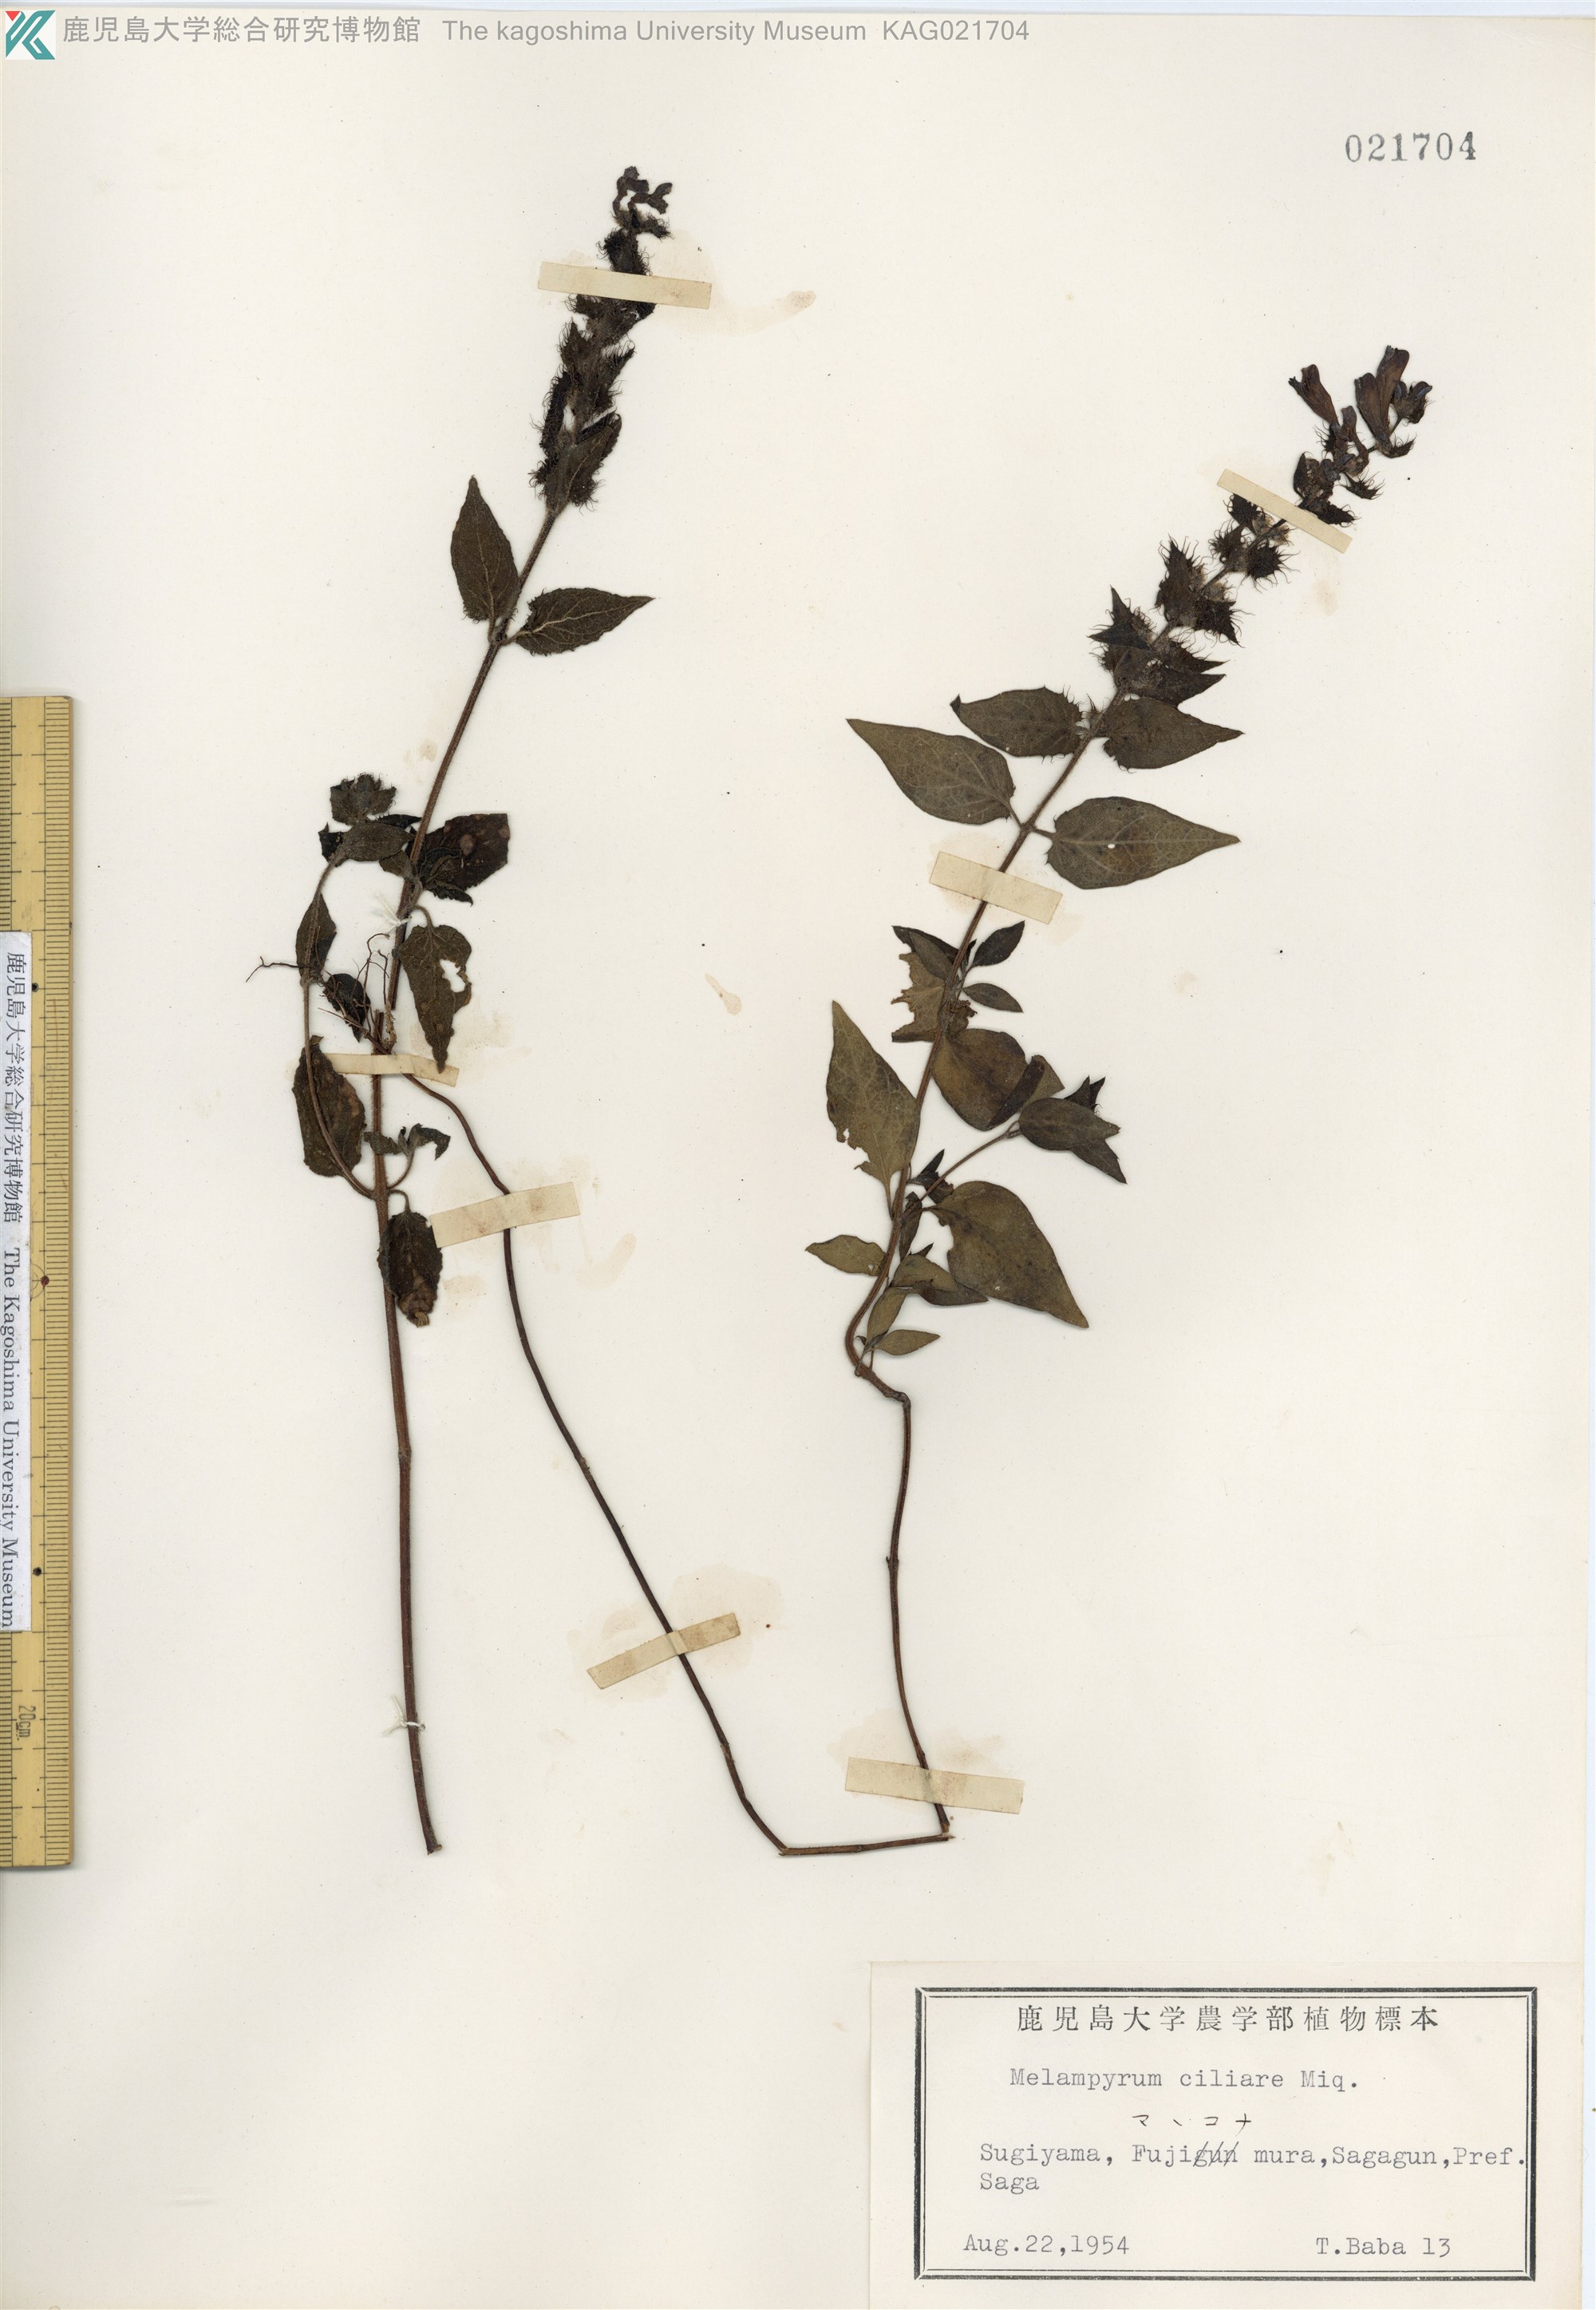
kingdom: Plantae
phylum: Tracheophyta
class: Magnoliopsida
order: Lamiales
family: Orobanchaceae
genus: Melampyrum
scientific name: Melampyrum roseum
